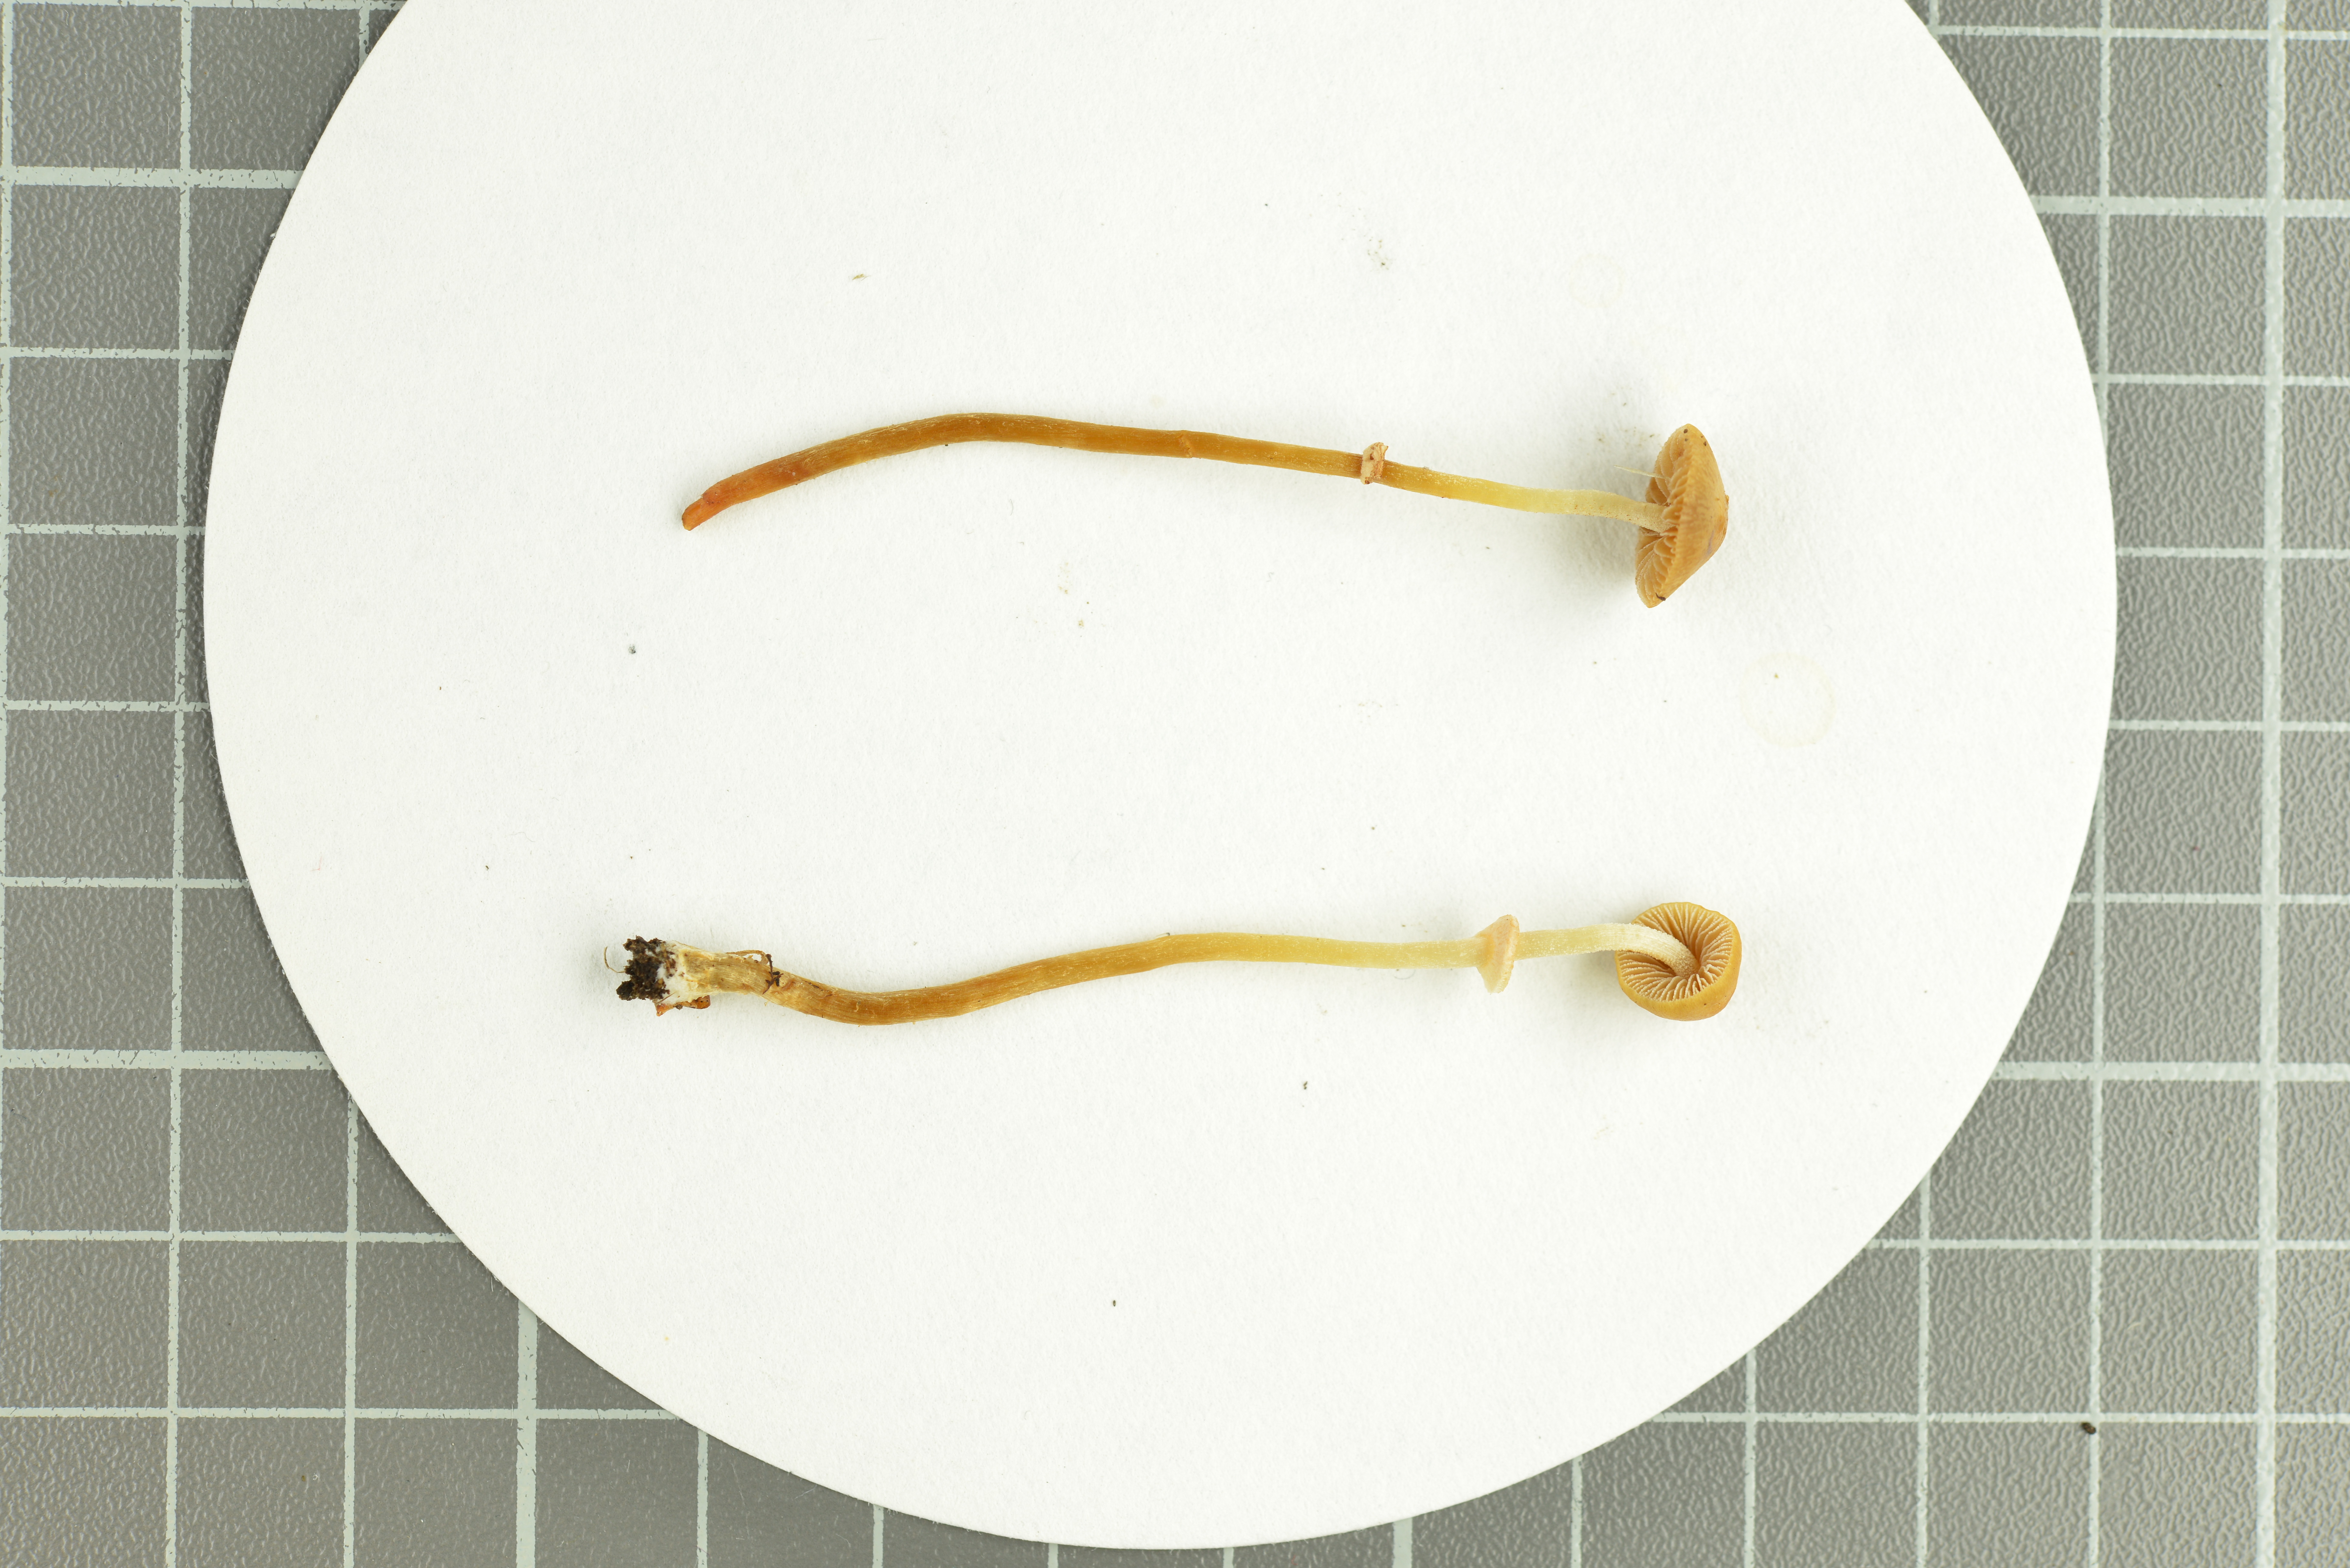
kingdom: Fungi
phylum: Basidiomycota
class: Agaricomycetes
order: Agaricales
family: Bolbitiaceae
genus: Conocybe
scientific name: Conocybe vexans
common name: Vexing conecap
